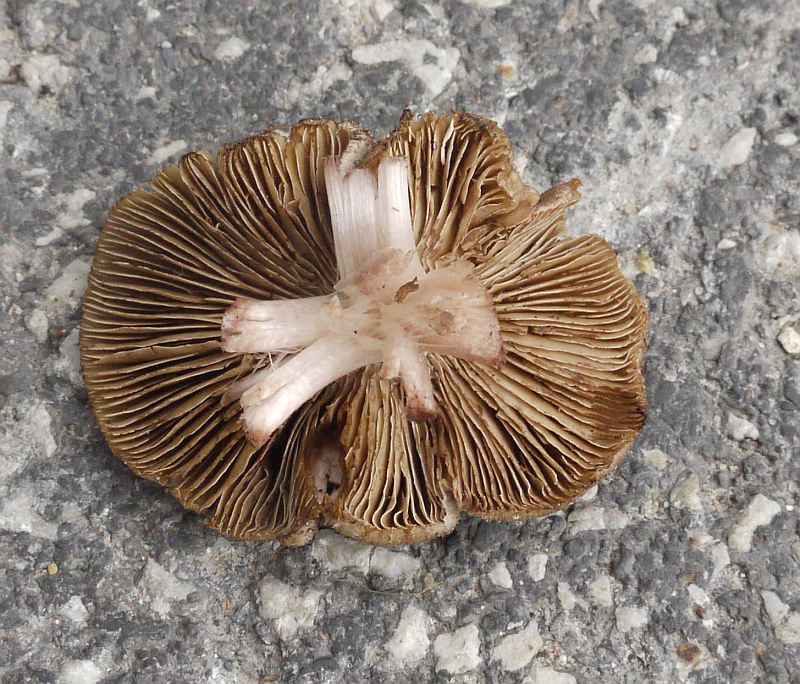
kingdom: Fungi
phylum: Basidiomycota
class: Agaricomycetes
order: Agaricales
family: Inocybaceae
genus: Inosperma
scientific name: Inosperma adaequatum
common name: vinrød trævlhat
